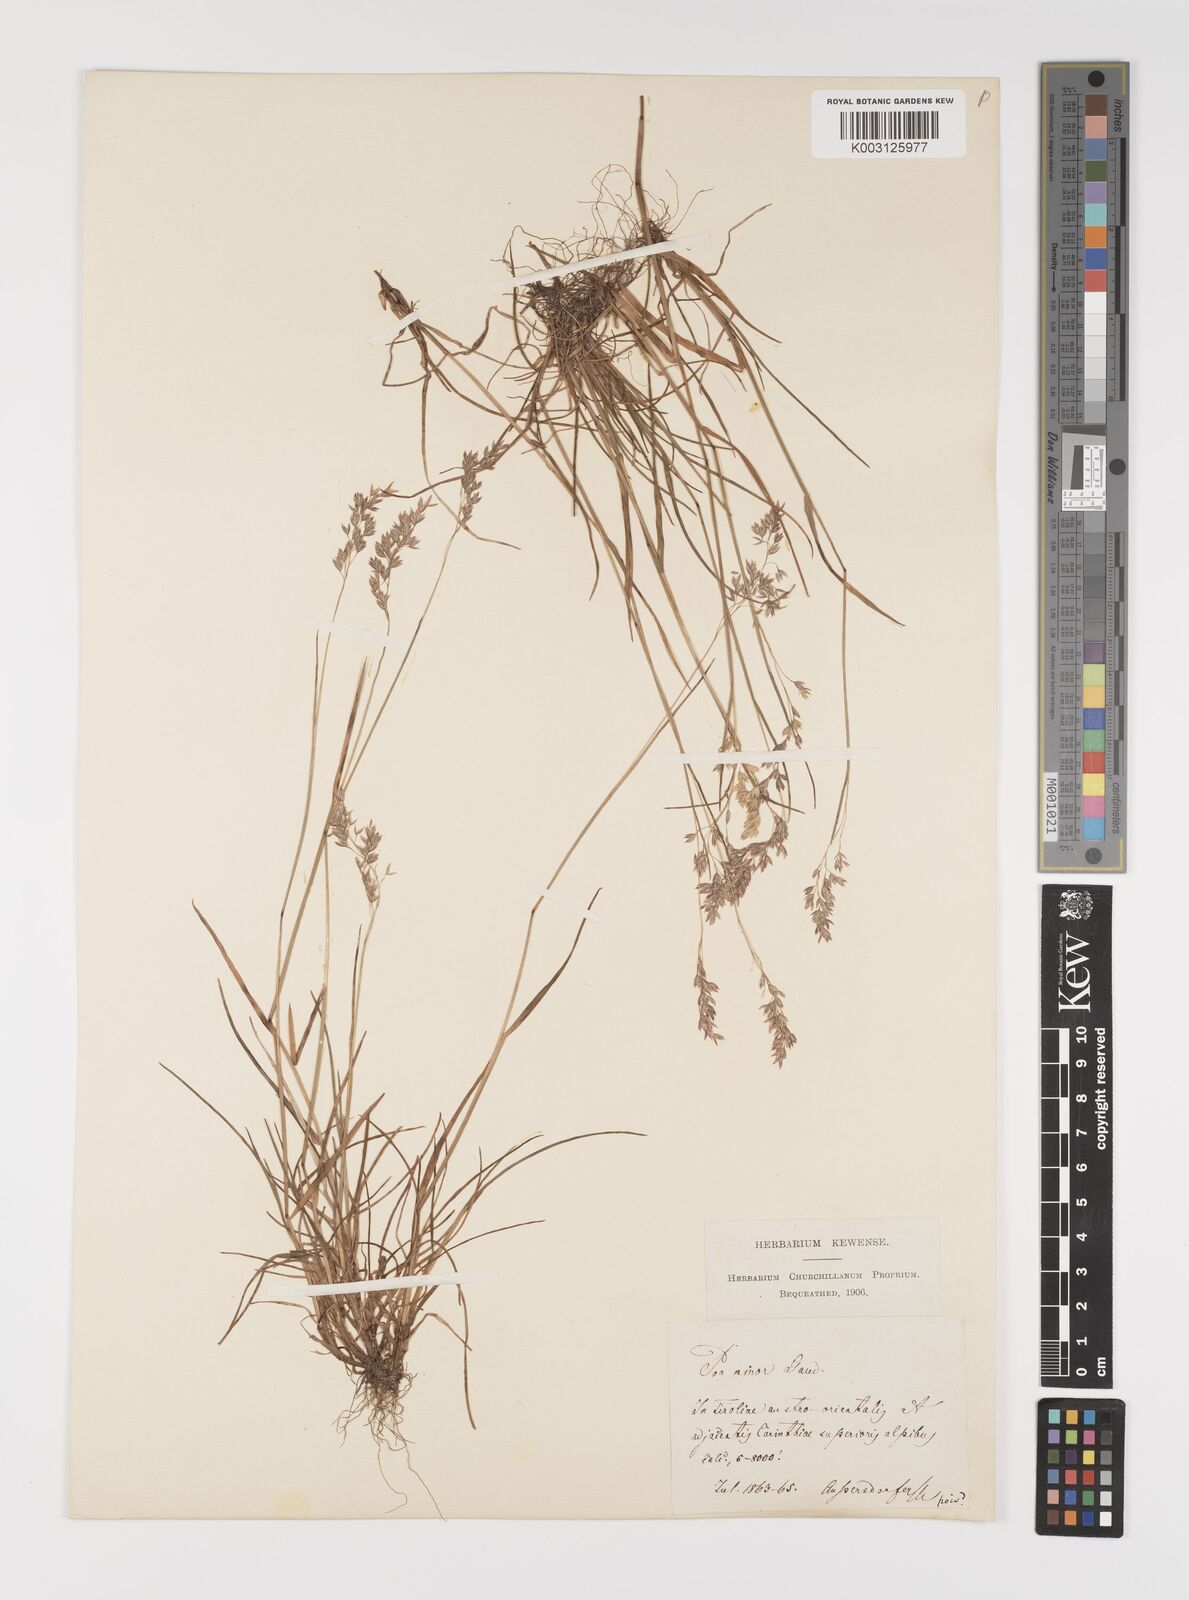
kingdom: Plantae
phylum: Tracheophyta
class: Liliopsida
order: Poales
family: Poaceae
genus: Poa
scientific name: Poa minor
